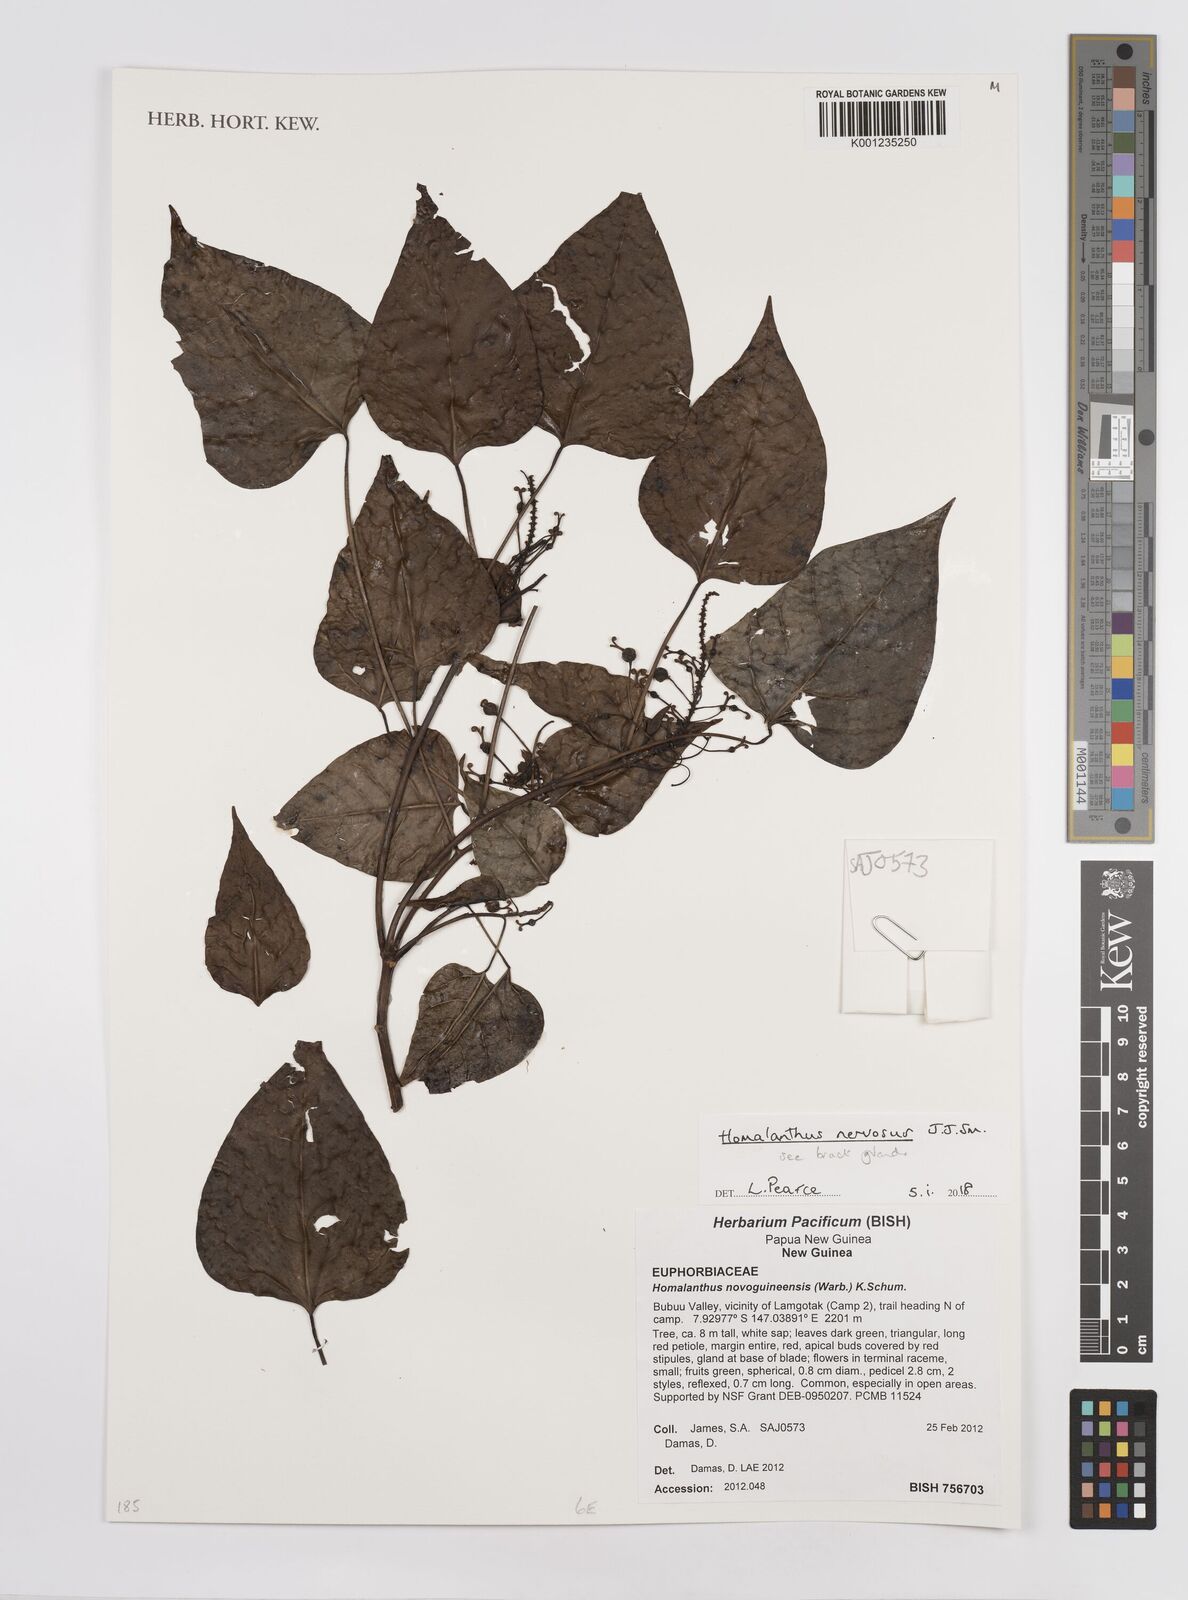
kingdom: Plantae
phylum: Tracheophyta
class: Magnoliopsida
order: Malpighiales
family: Euphorbiaceae
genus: Homalanthus
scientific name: Homalanthus nervosus
